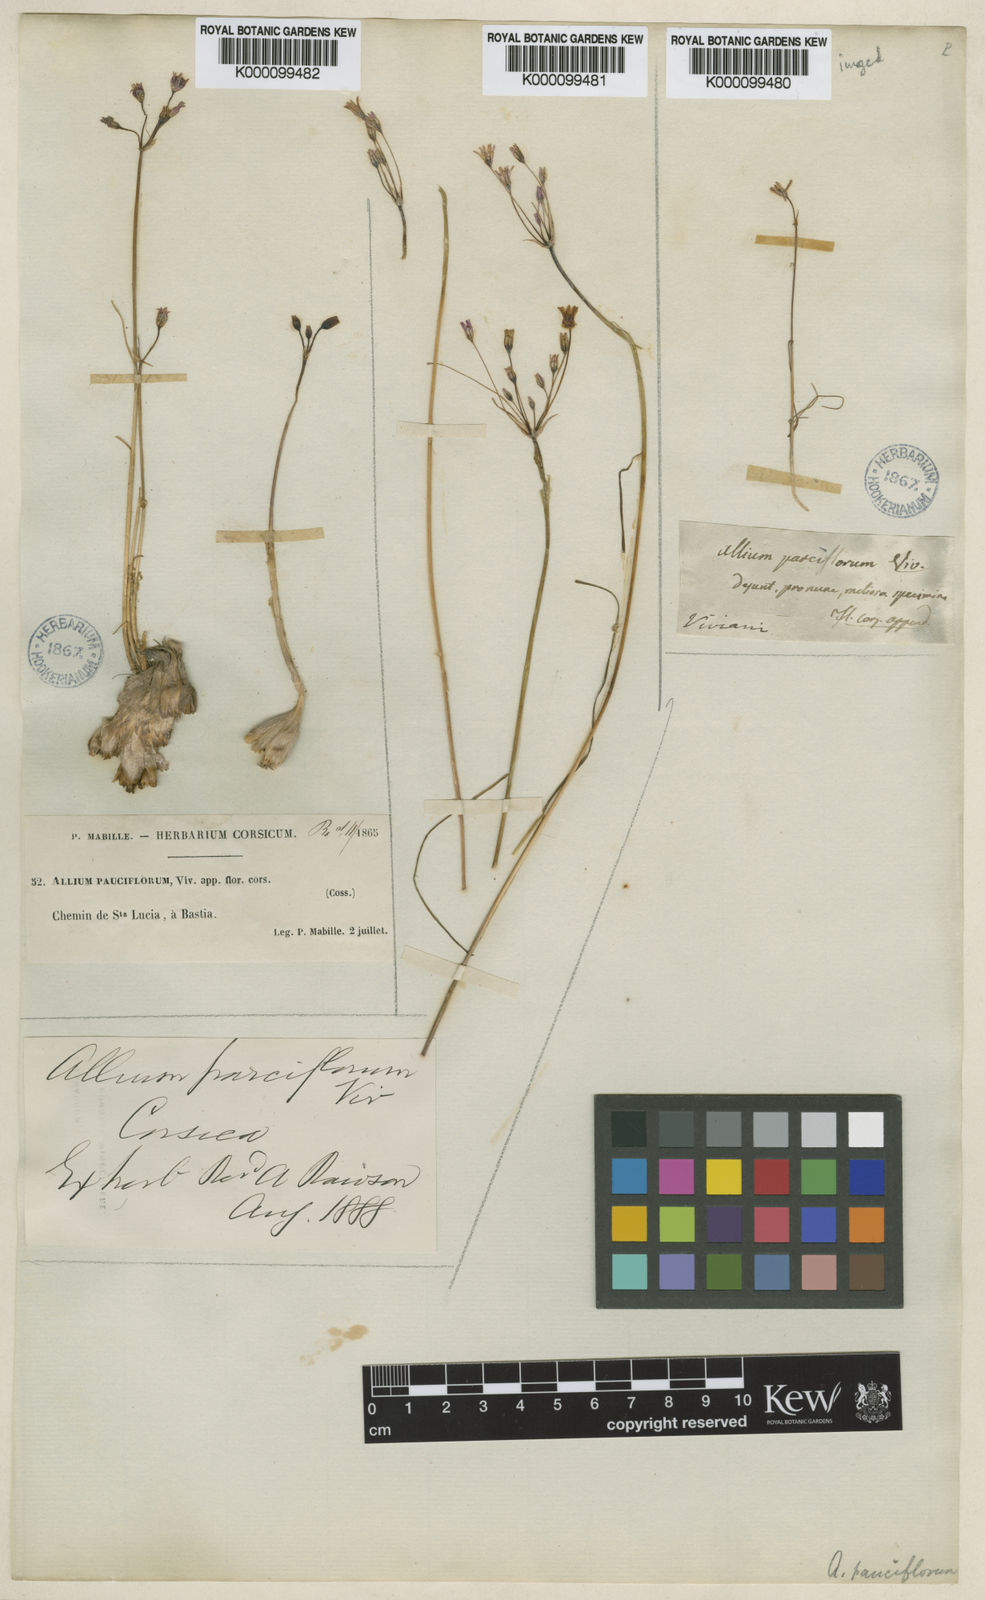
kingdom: Plantae
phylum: Tracheophyta
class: Liliopsida
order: Asparagales
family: Amaryllidaceae
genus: Allium
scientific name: Allium parciflorum
